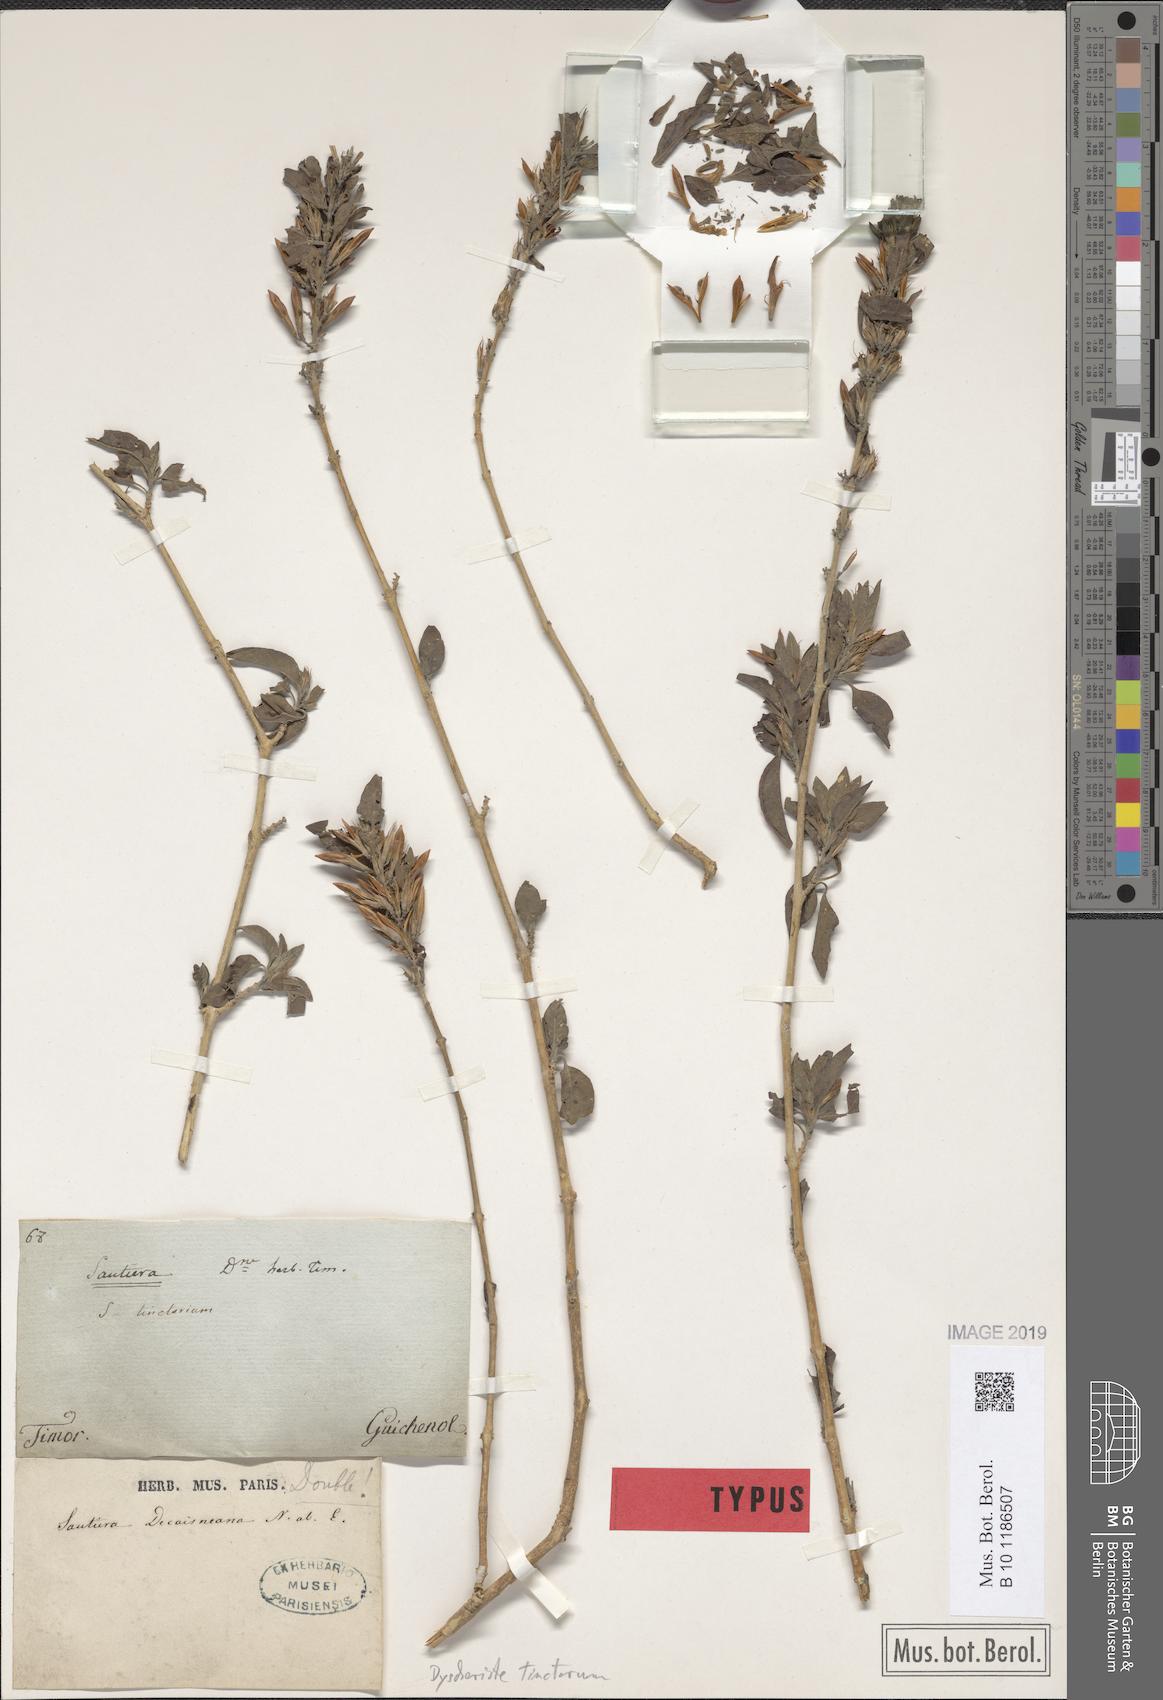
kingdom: Plantae
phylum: Tracheophyta
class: Magnoliopsida
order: Lamiales
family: Acanthaceae
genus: Dyschoriste
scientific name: Dyschoriste tinctorum
